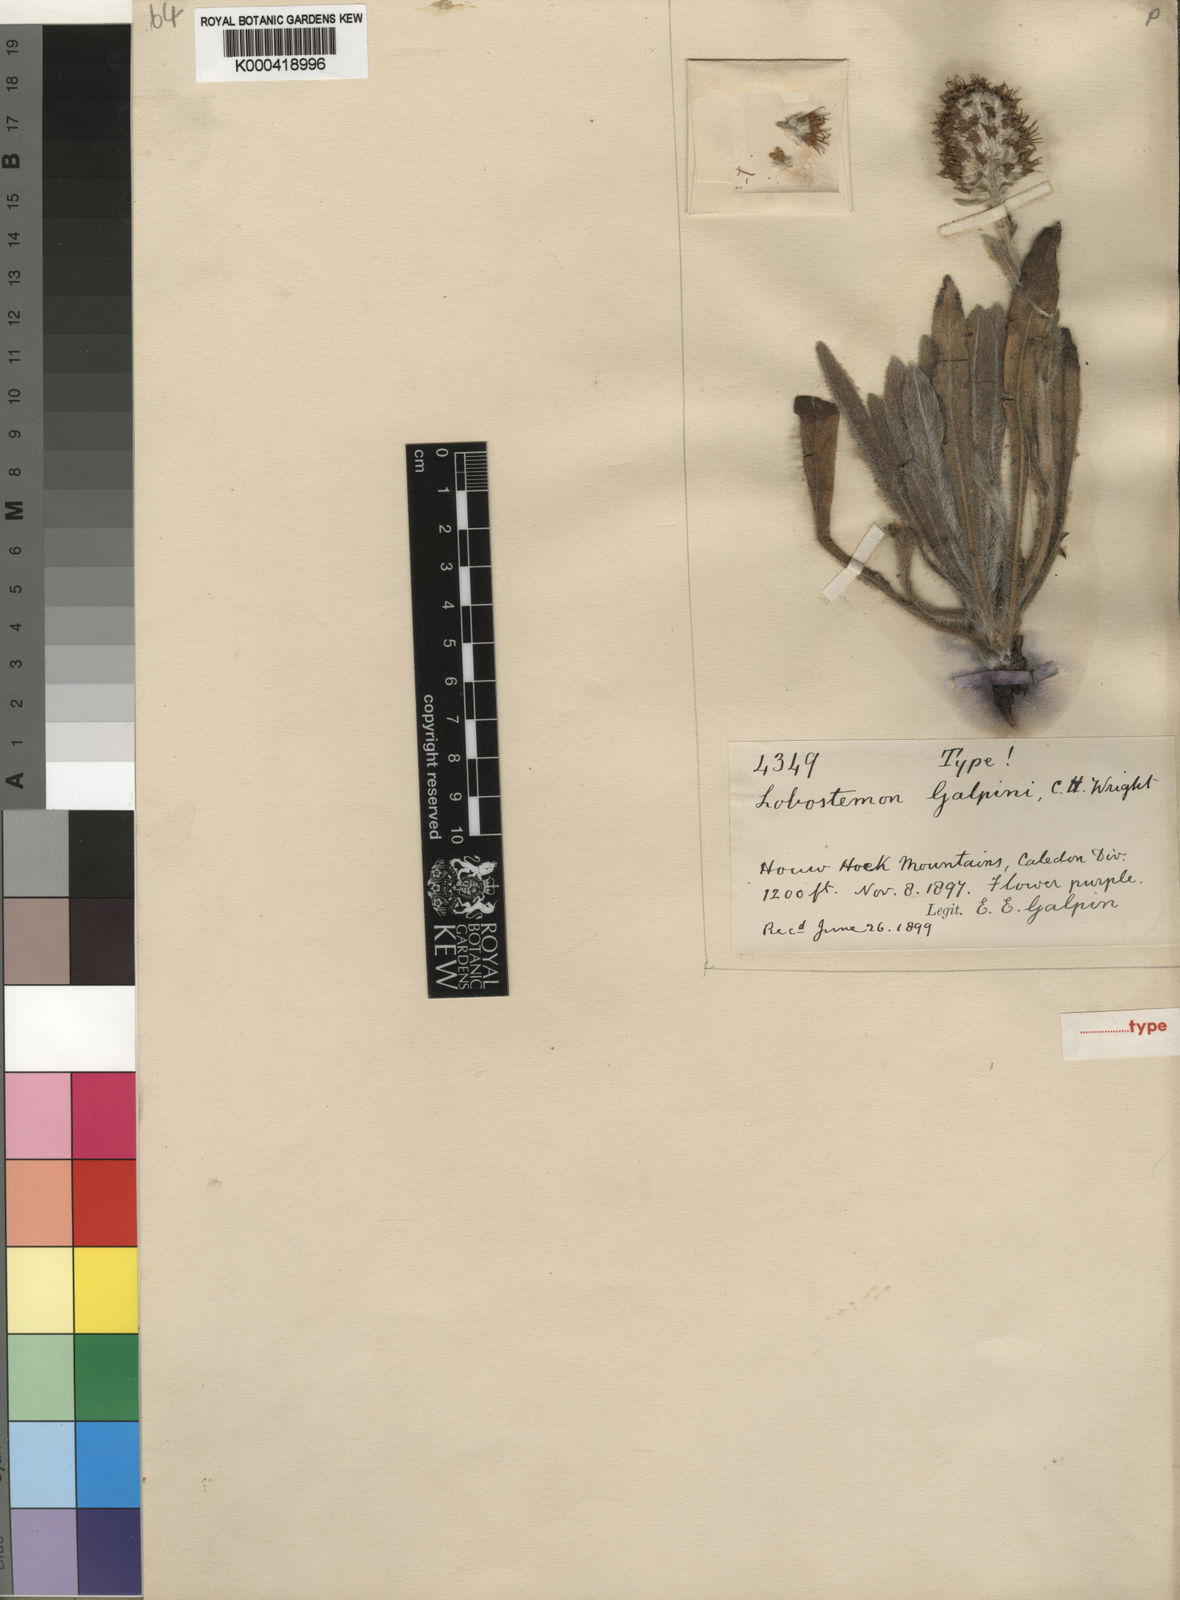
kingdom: Plantae
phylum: Tracheophyta
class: Magnoliopsida
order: Boraginales
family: Boraginaceae
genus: Lobostemon
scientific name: Lobostemon ecklonianus
